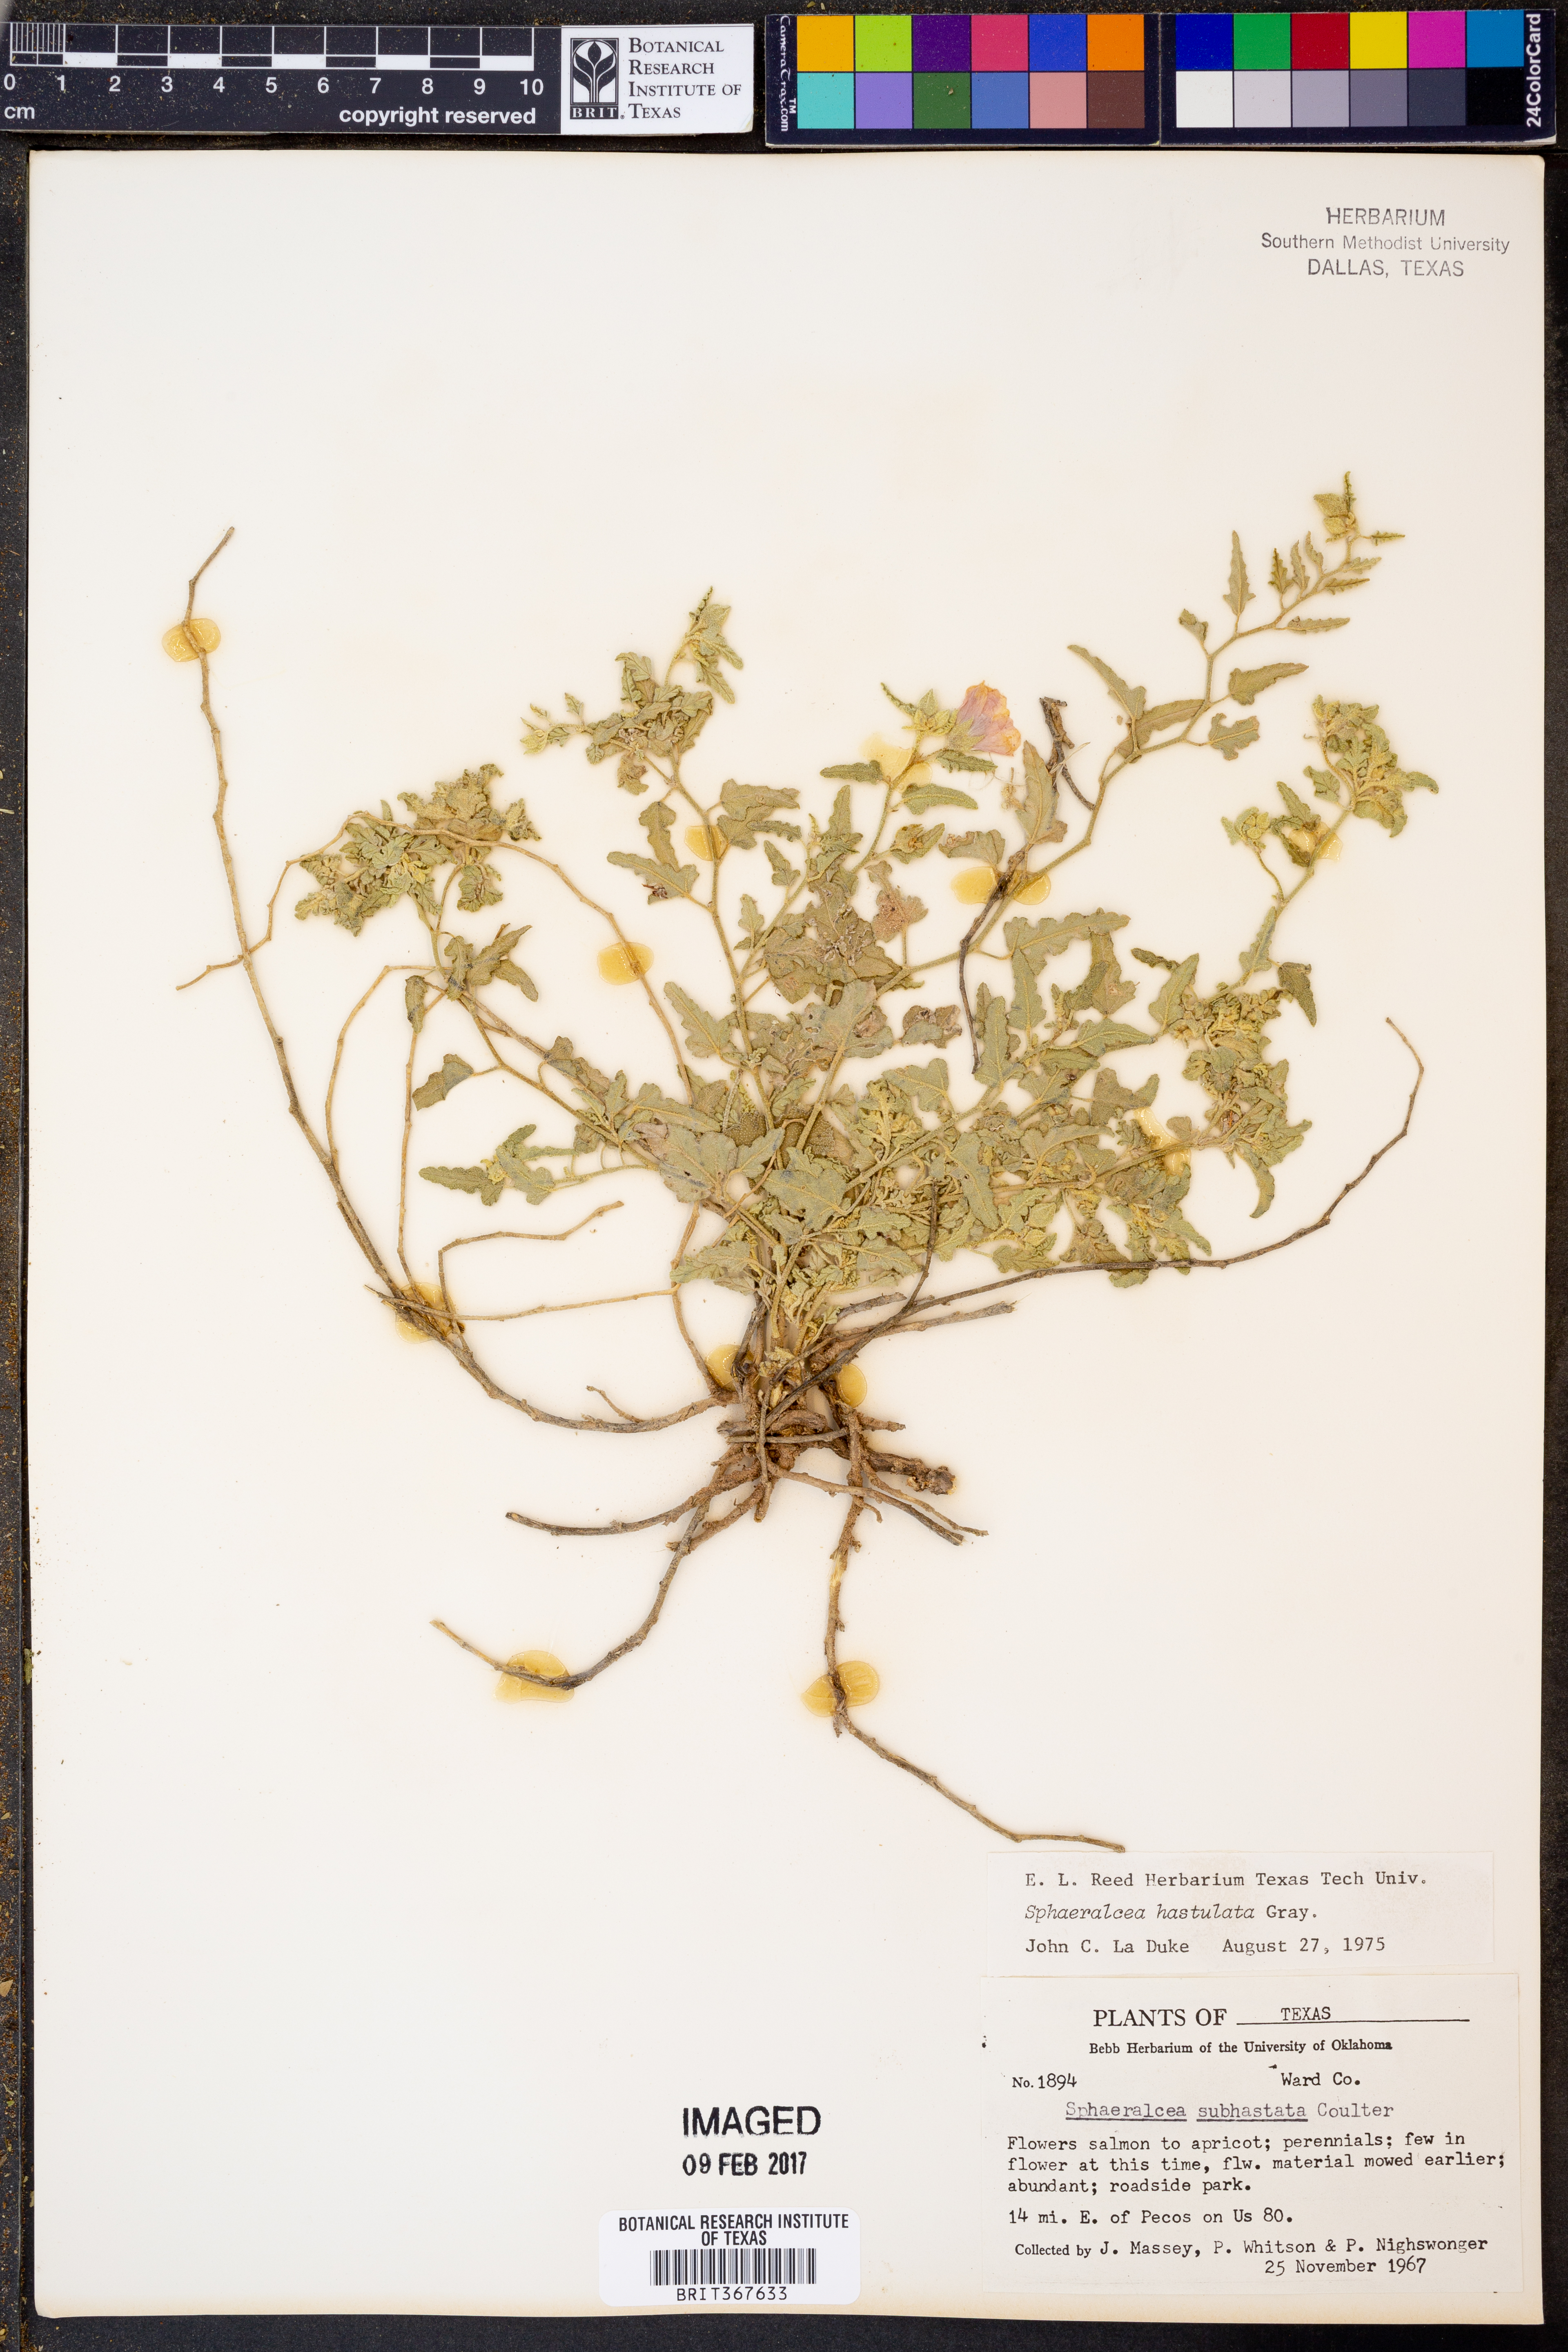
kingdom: Plantae
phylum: Tracheophyta
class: Magnoliopsida
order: Malvales
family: Malvaceae
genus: Sphaeralcea
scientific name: Sphaeralcea hastulata
